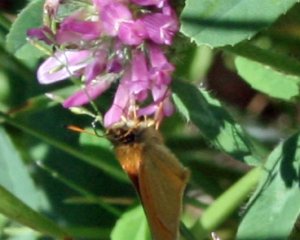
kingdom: Animalia
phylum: Arthropoda
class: Insecta
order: Lepidoptera
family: Hesperiidae
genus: Thymelicus
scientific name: Thymelicus lineola
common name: European Skipper
